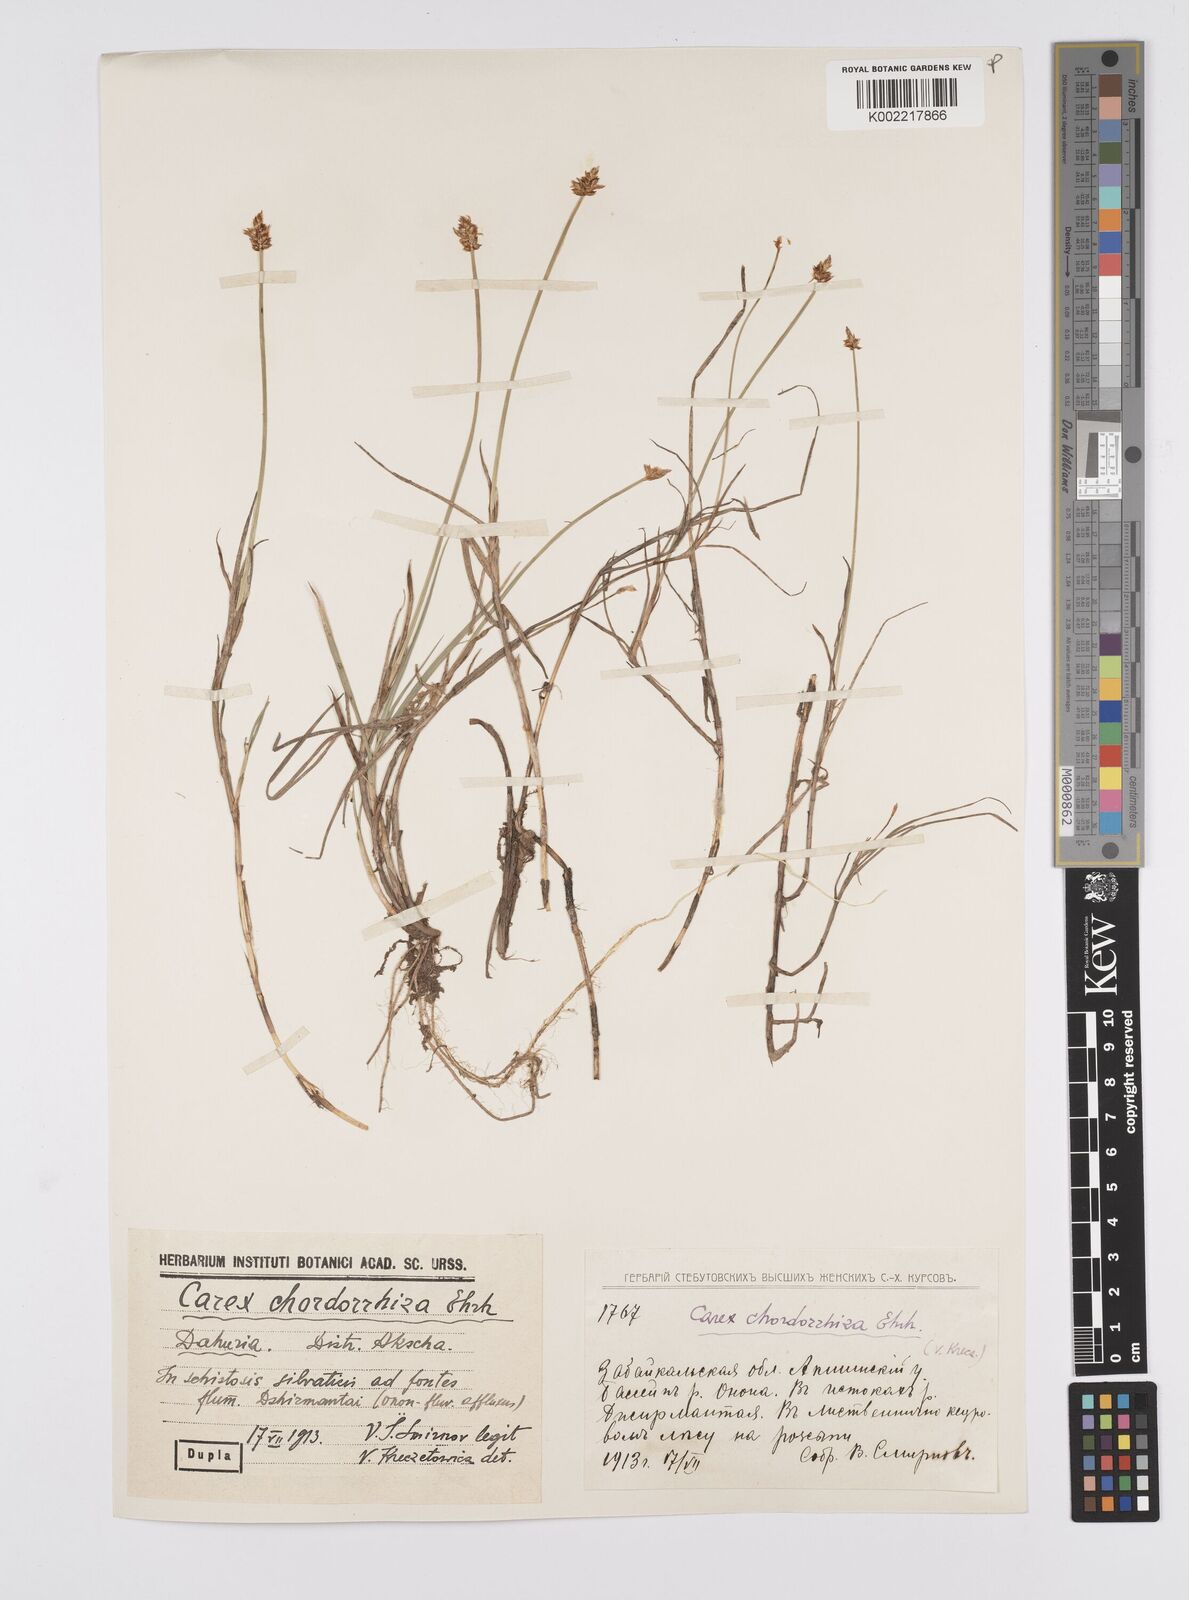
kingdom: Plantae
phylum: Tracheophyta
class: Liliopsida
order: Poales
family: Cyperaceae
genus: Carex
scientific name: Carex
